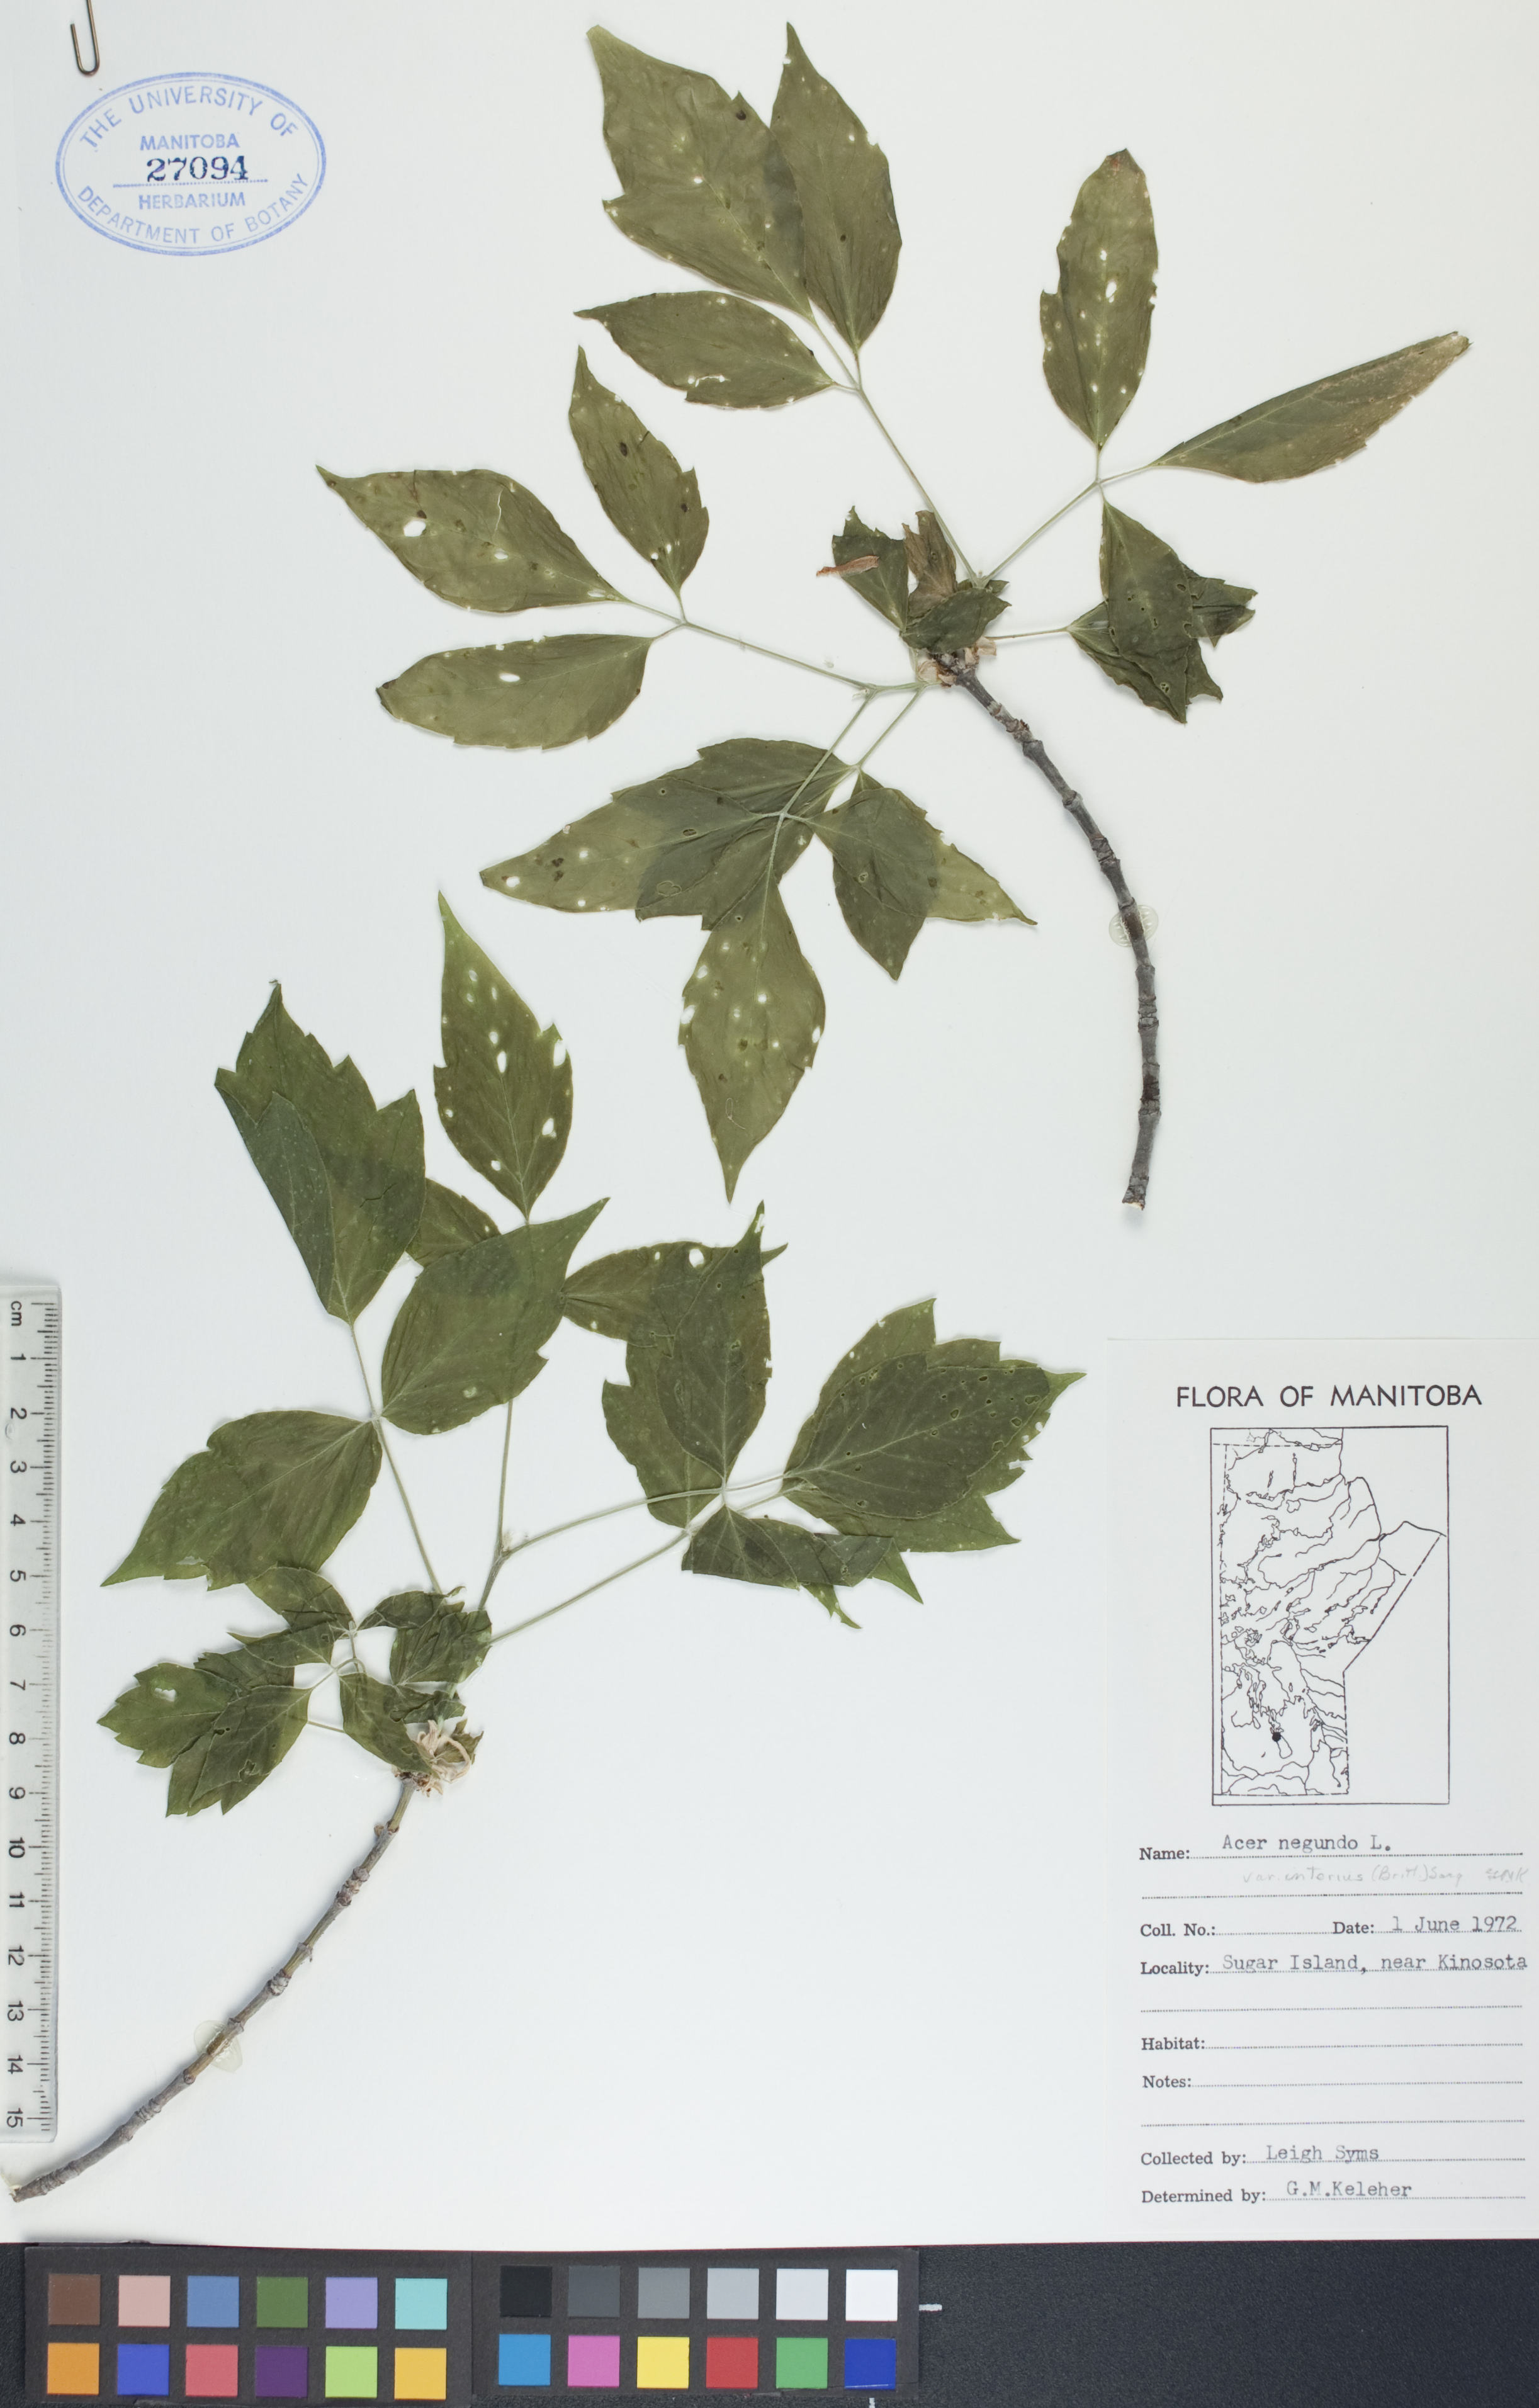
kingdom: Plantae
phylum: Tracheophyta
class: Magnoliopsida
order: Sapindales
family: Sapindaceae
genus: Acer
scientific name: Acer negundo
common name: Ashleaf maple
